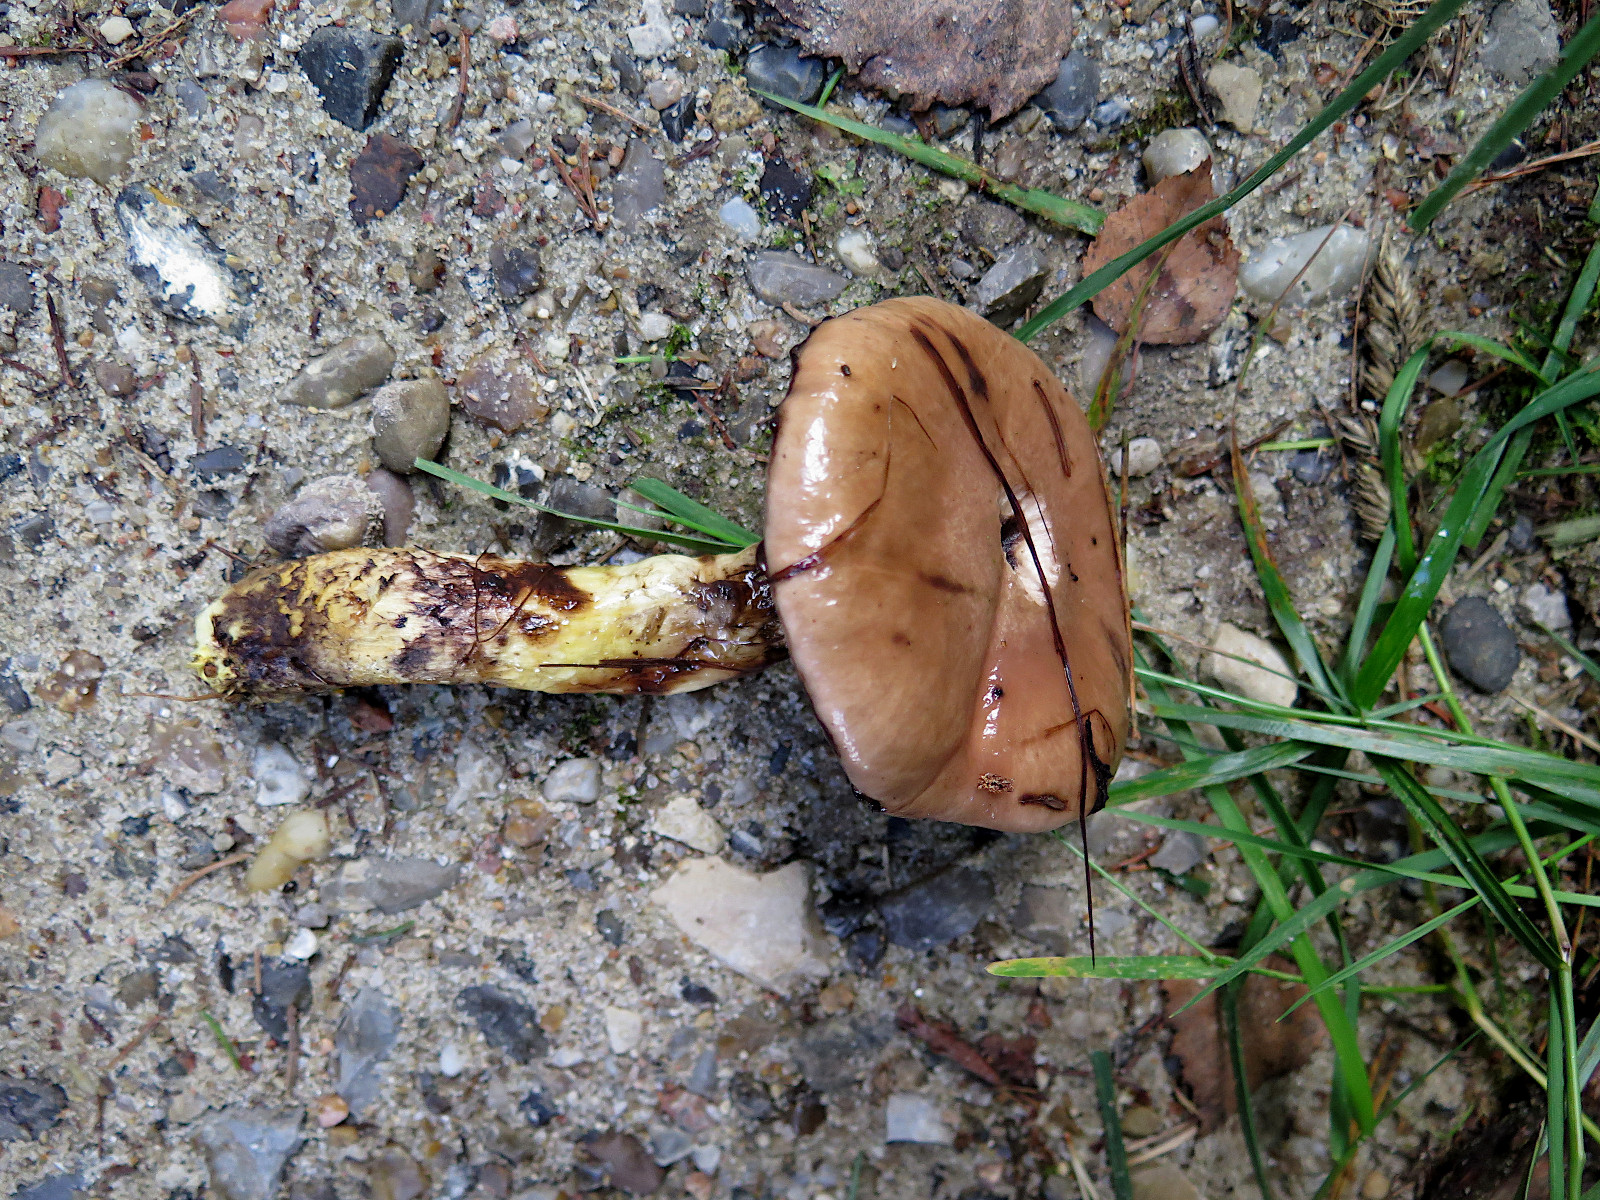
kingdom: Fungi
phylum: Basidiomycota
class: Agaricomycetes
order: Boletales
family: Gomphidiaceae
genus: Gomphidius
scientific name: Gomphidius glutinosus
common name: grå slimslør
